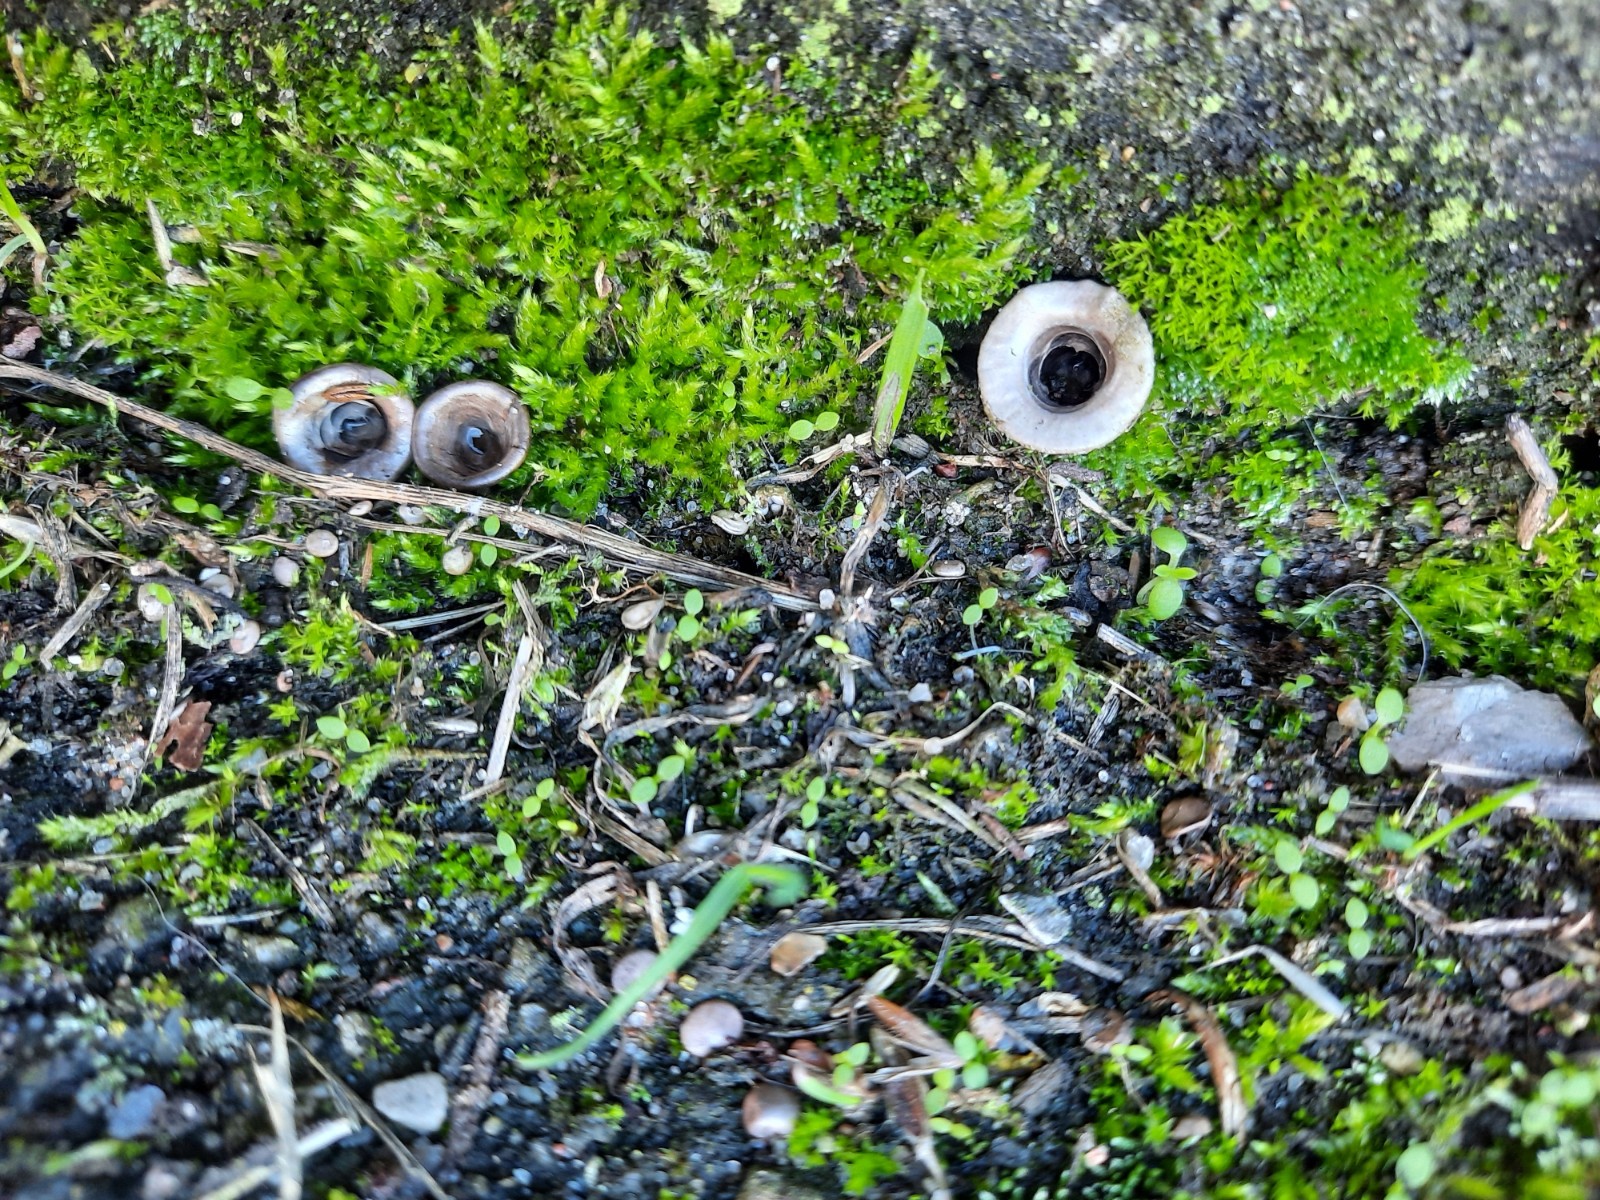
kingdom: Fungi
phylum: Basidiomycota
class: Agaricomycetes
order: Agaricales
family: Agaricaceae
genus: Cyathus
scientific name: Cyathus olla
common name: klokke-redesvamp
